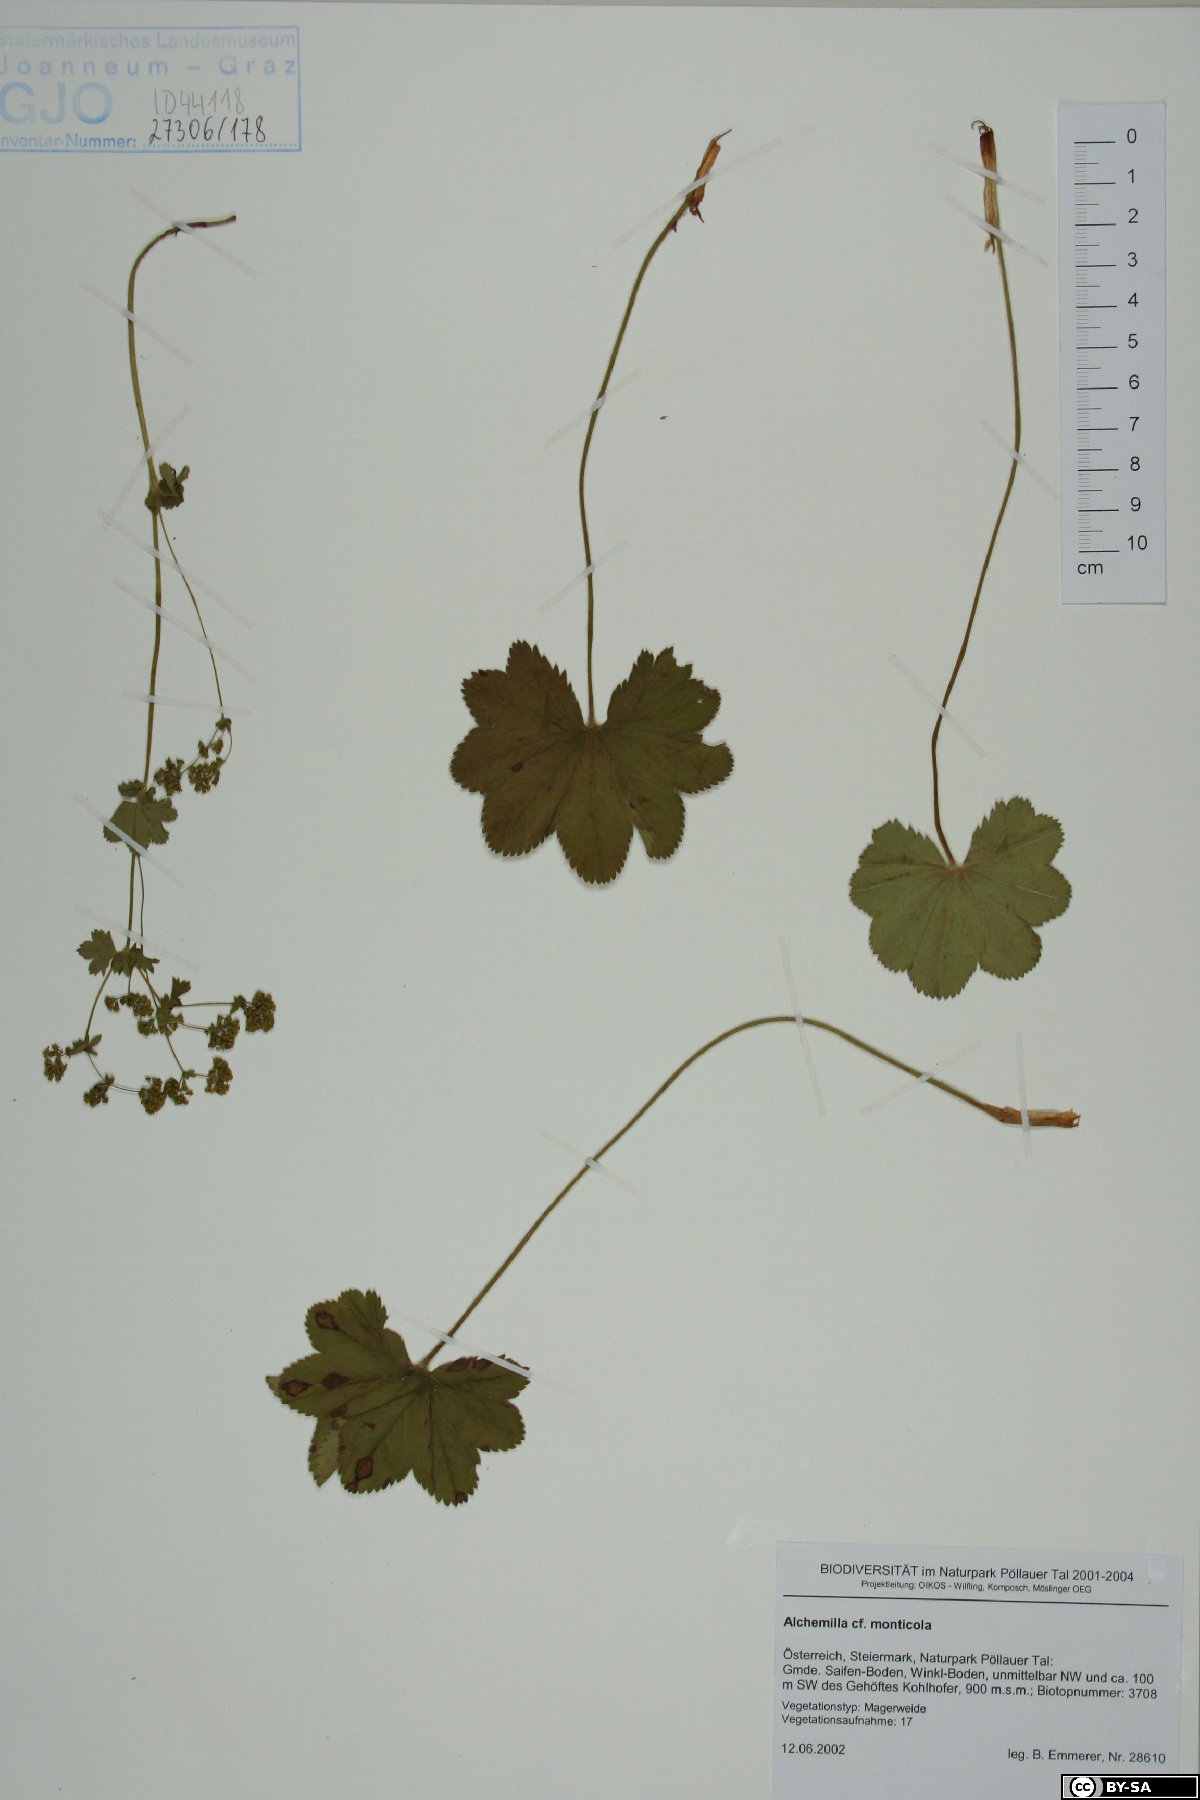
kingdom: Plantae
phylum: Tracheophyta
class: Magnoliopsida
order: Rosales
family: Rosaceae
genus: Alchemilla
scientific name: Alchemilla monticola
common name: Hairy lady's mantle
